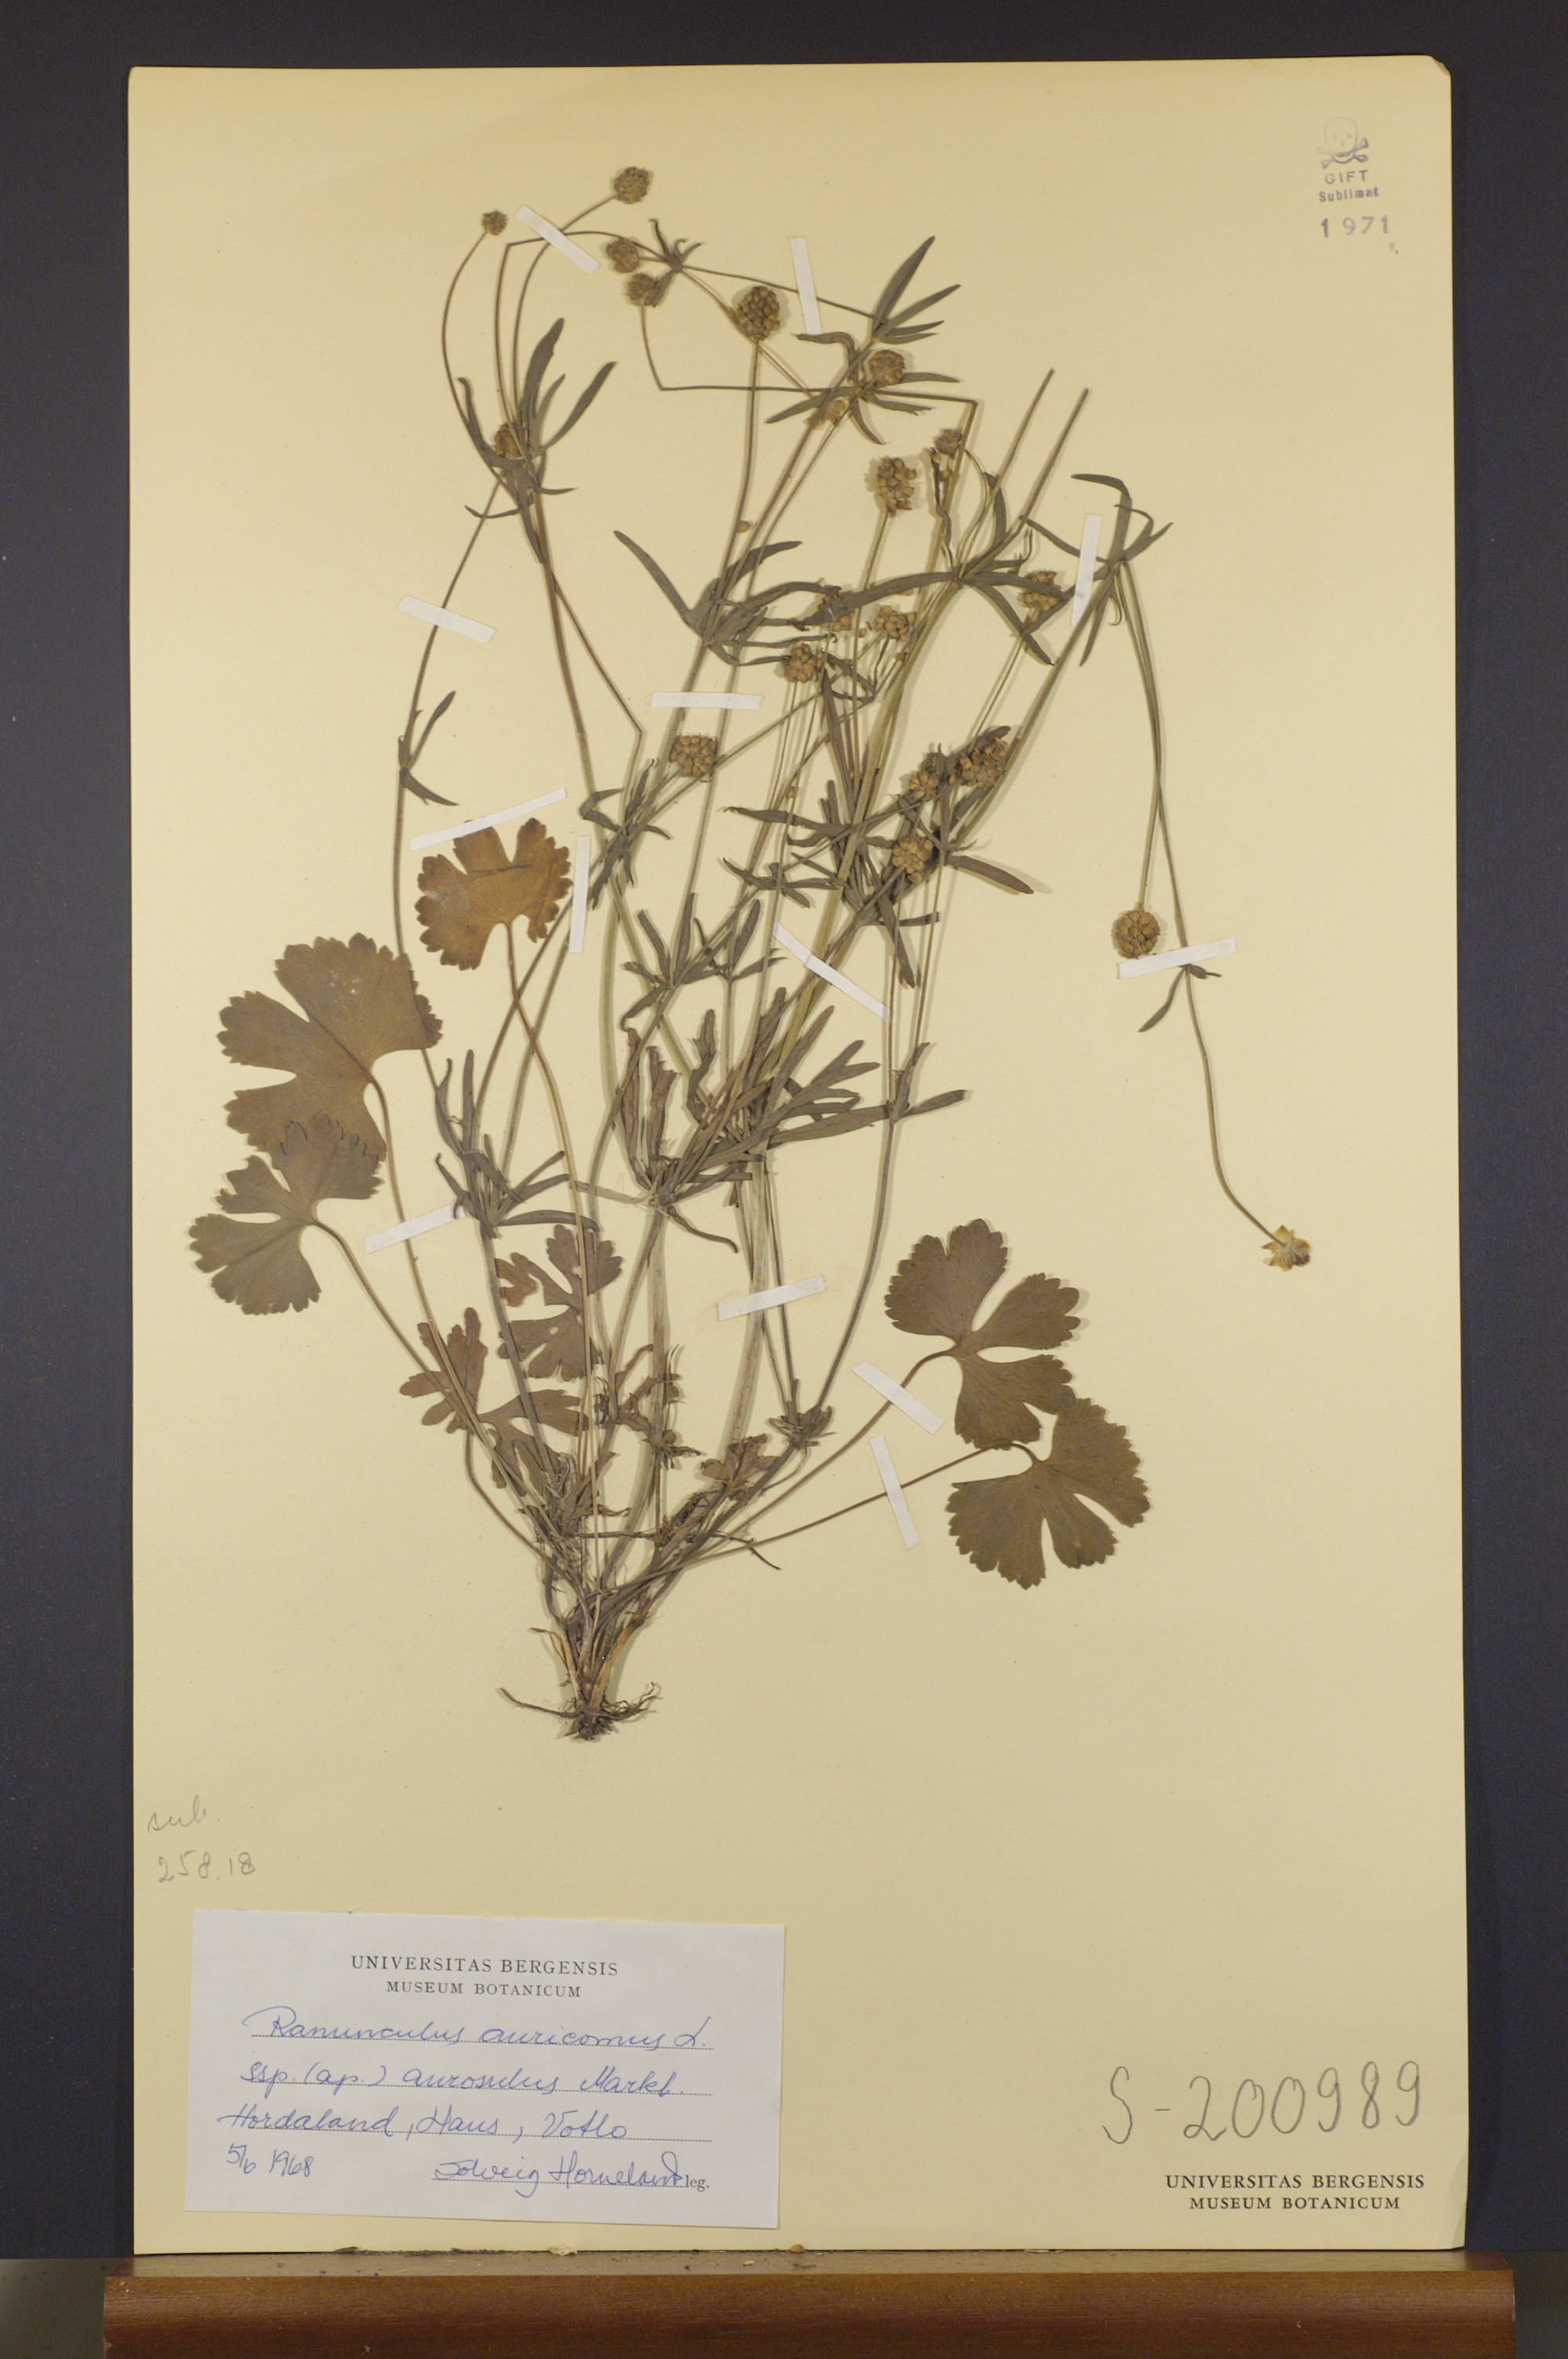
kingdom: Plantae
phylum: Tracheophyta
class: Magnoliopsida
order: Ranunculales
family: Ranunculaceae
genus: Ranunculus
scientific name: Ranunculus aurosulus
